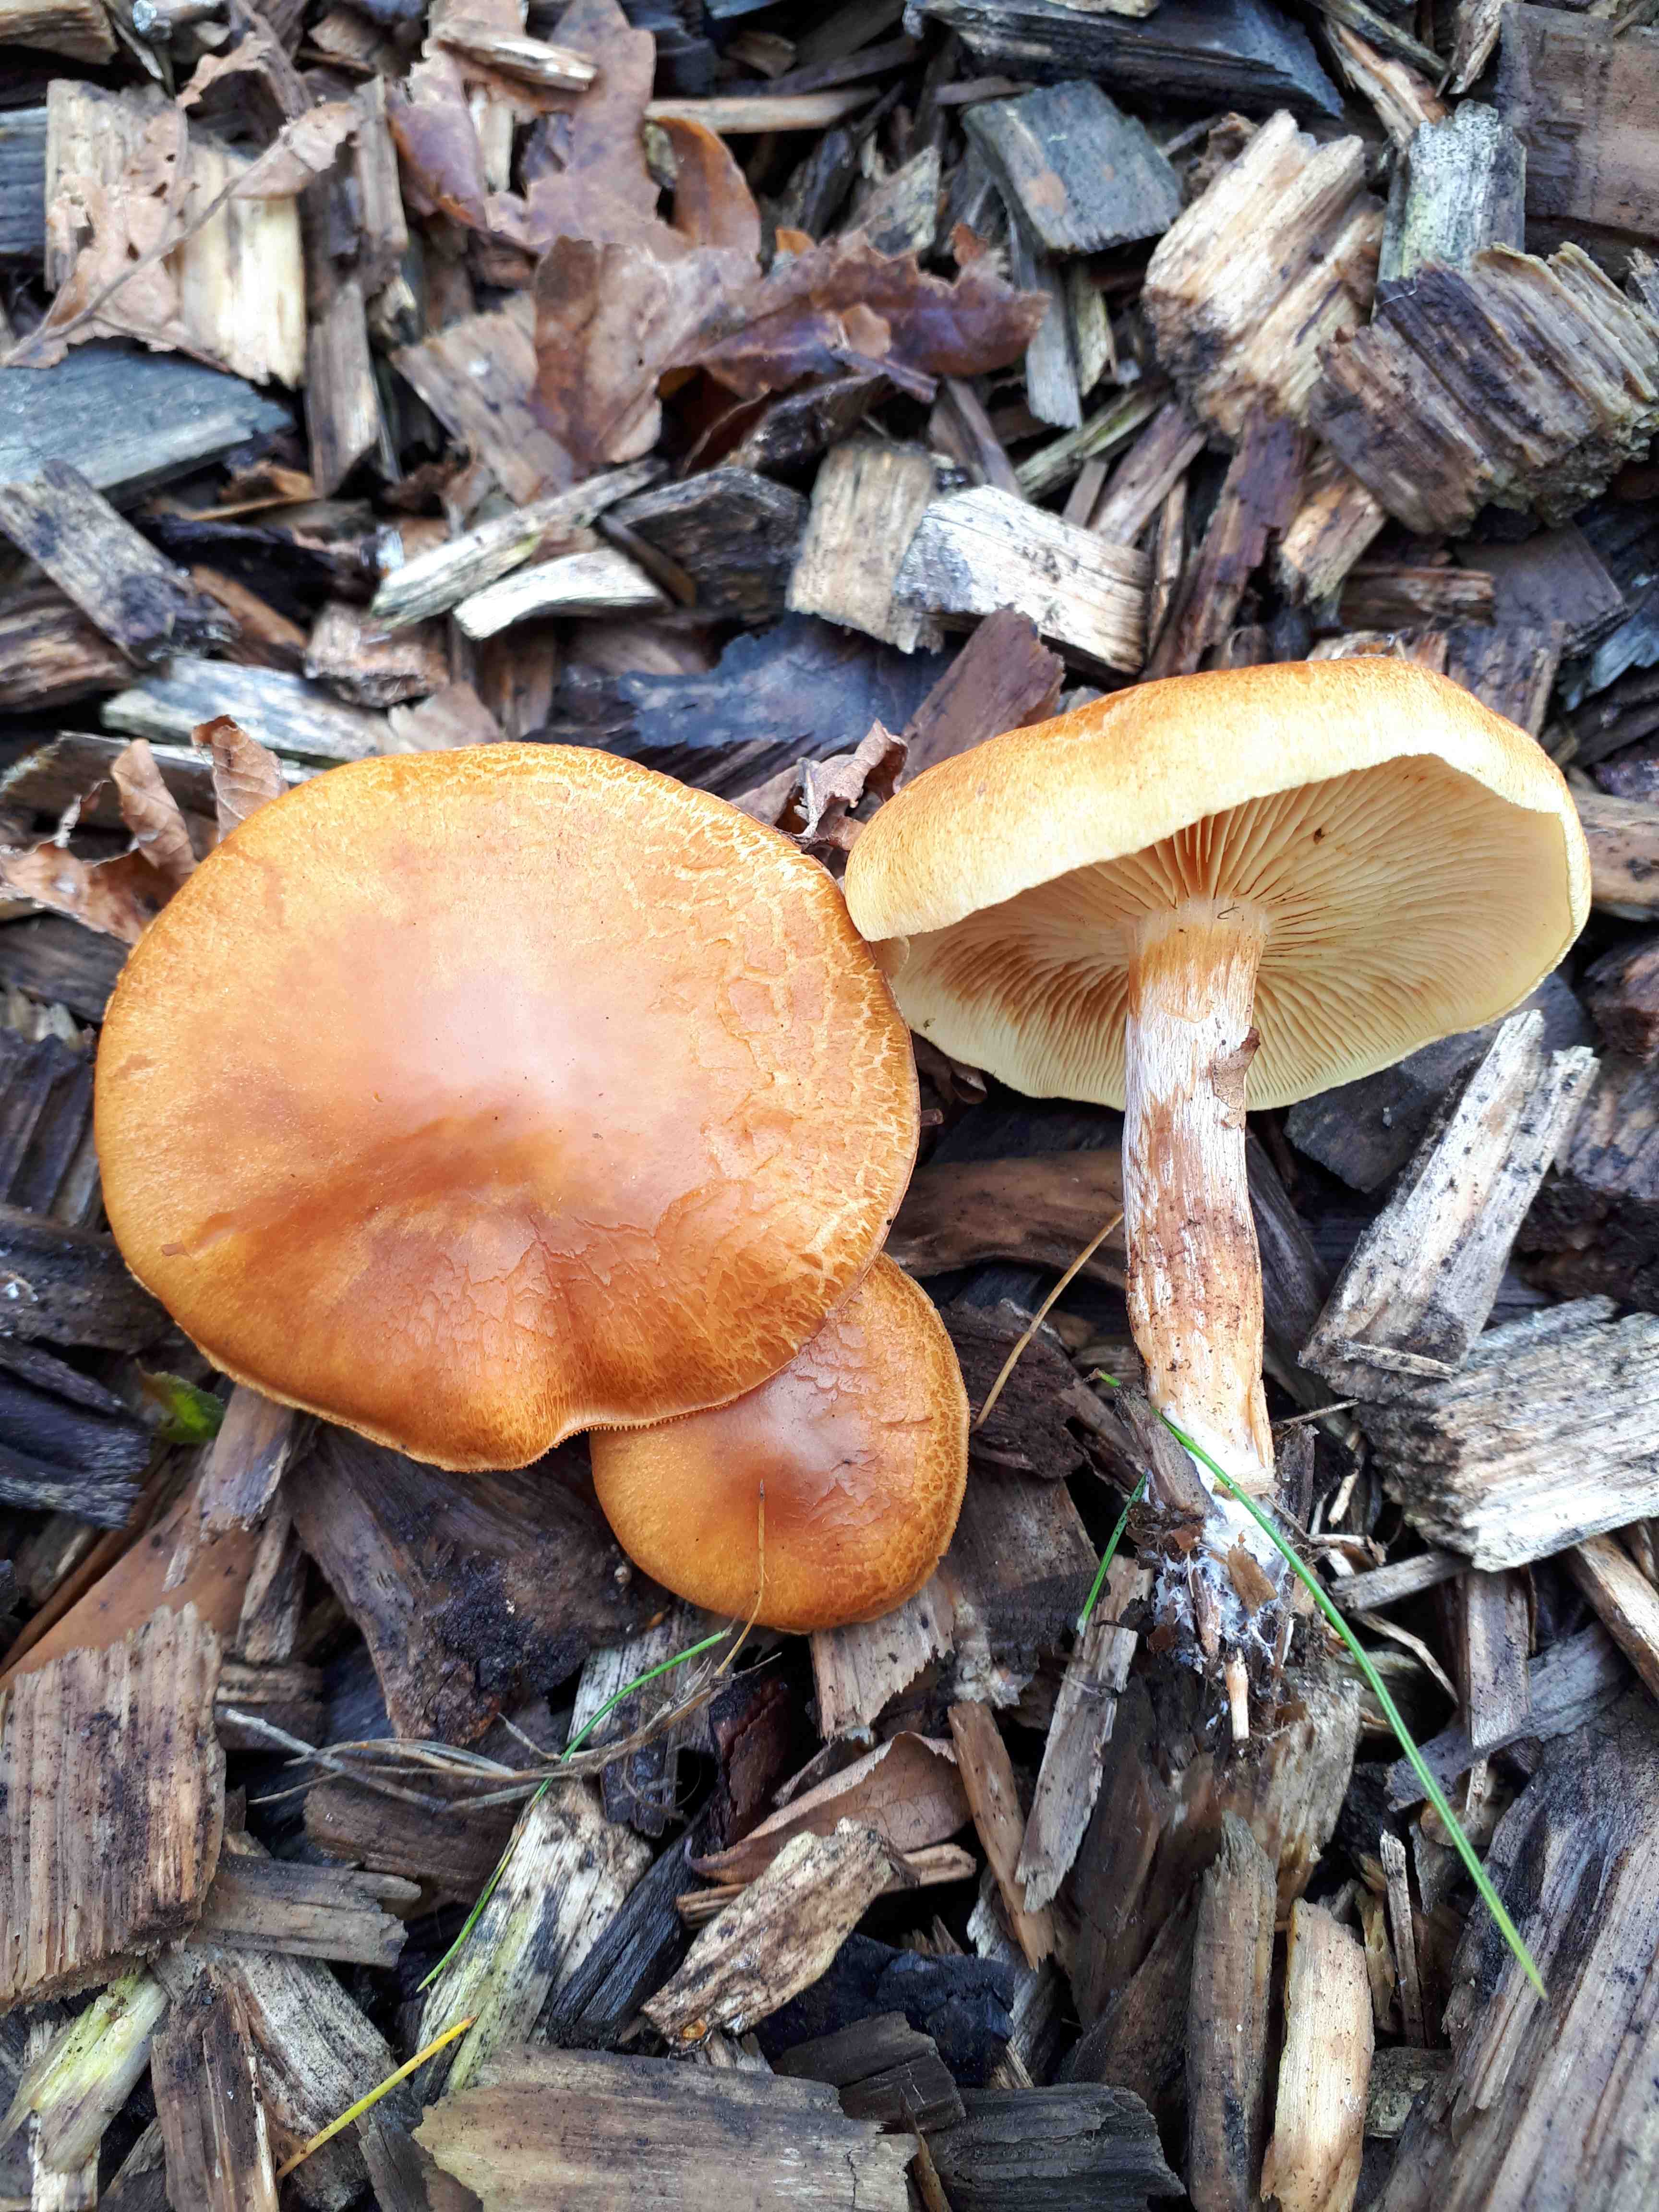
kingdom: Fungi
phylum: Basidiomycota
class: Agaricomycetes
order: Agaricales
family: Hymenogastraceae
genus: Gymnopilus
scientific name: Gymnopilus penetrans
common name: plettet flammehat
